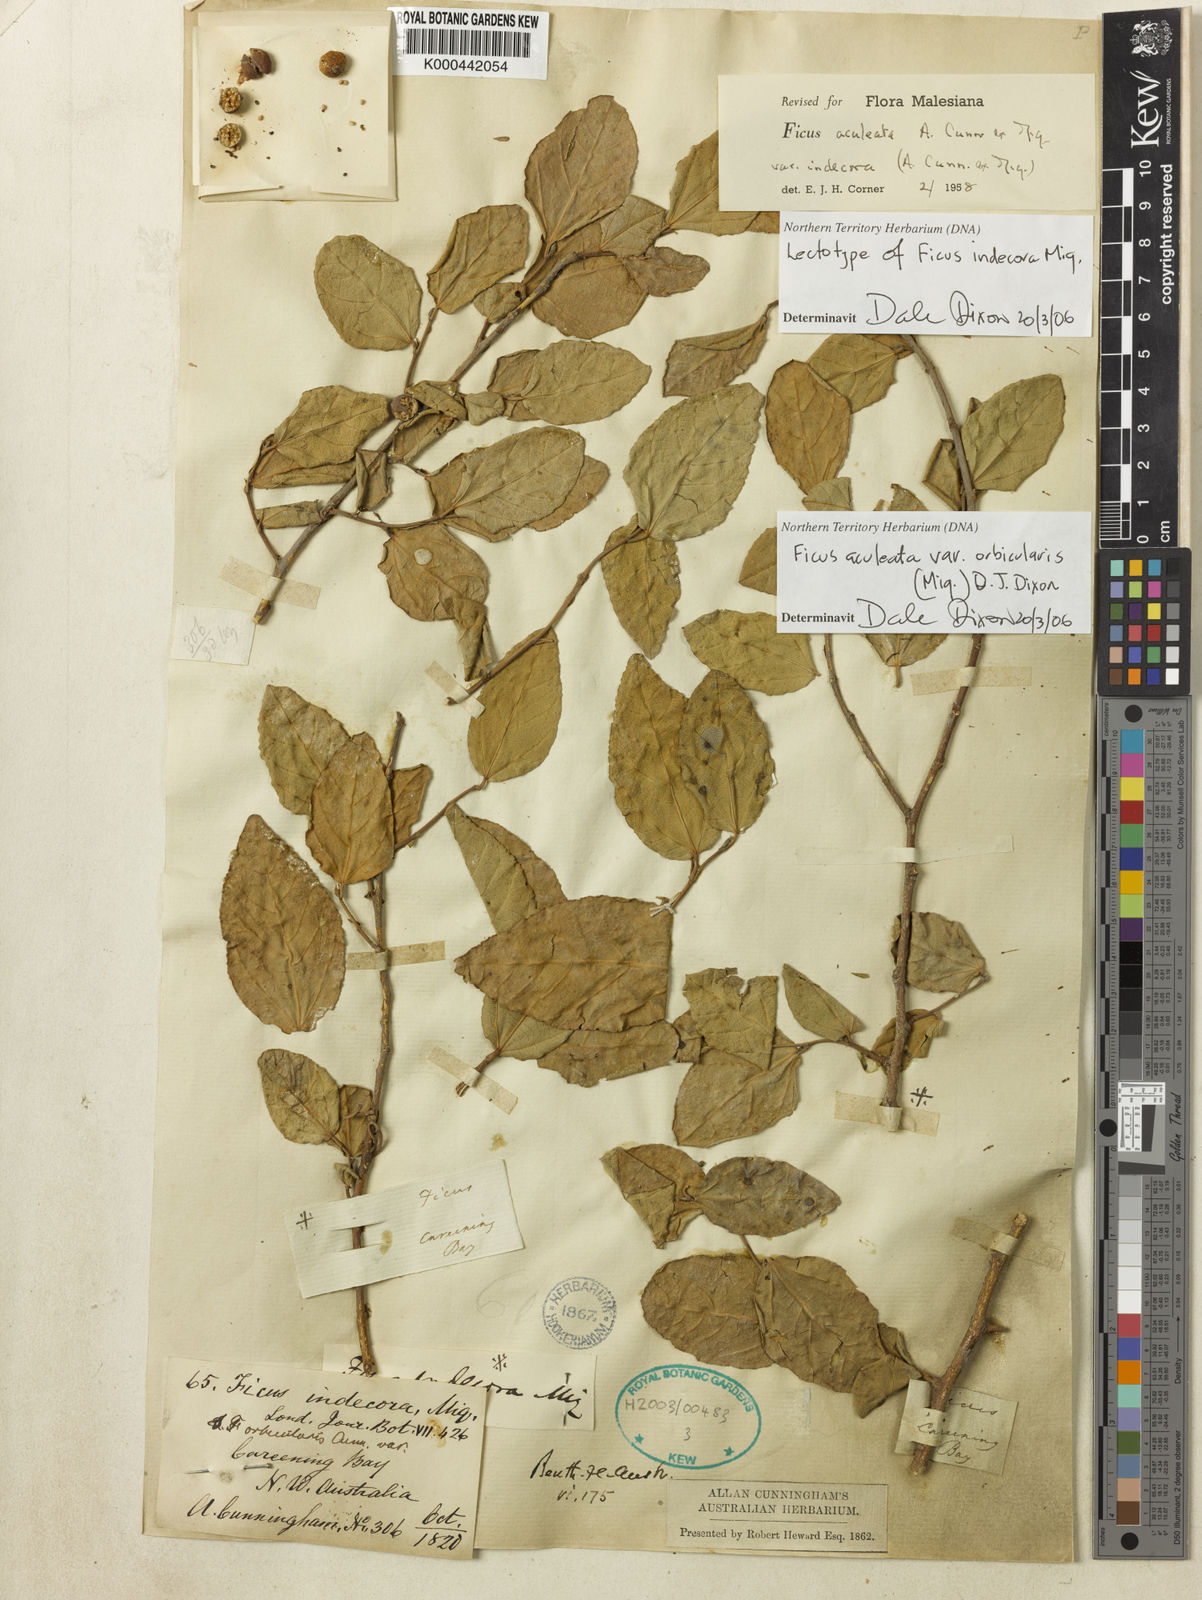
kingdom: Plantae
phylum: Tracheophyta
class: Magnoliopsida
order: Rosales
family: Moraceae
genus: Ficus
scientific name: Ficus opposita
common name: Figwood
